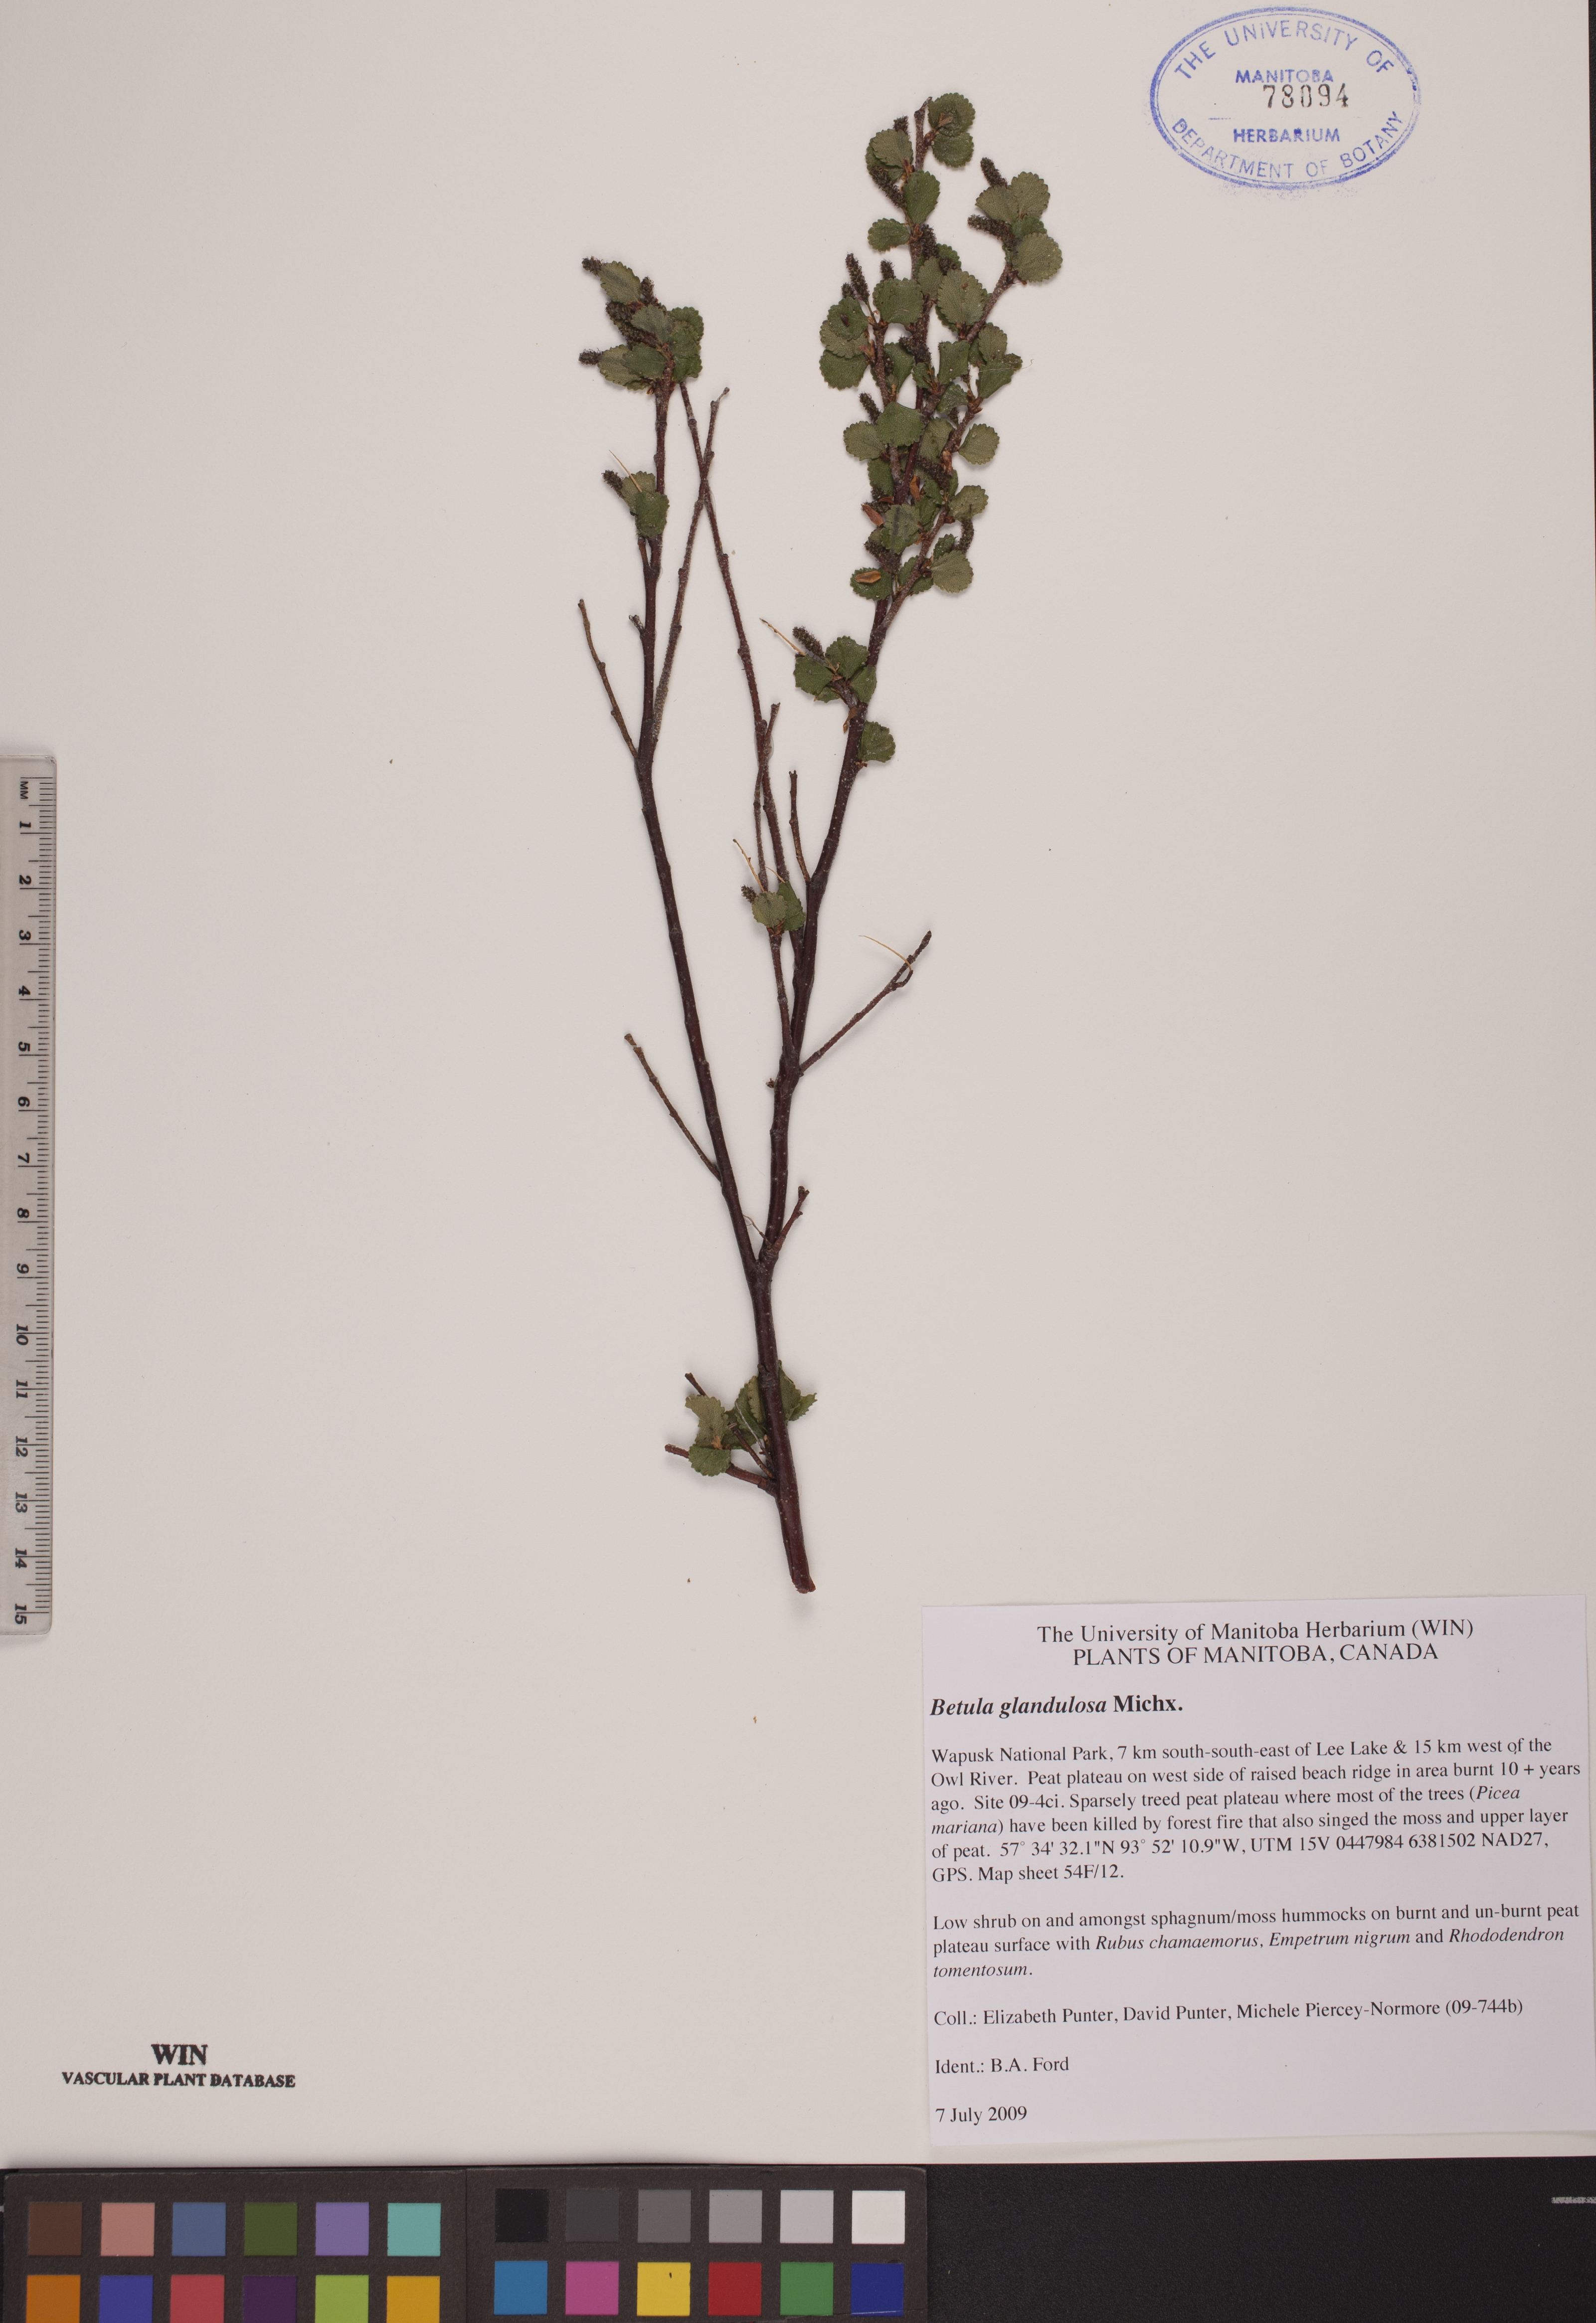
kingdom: Plantae
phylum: Tracheophyta
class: Magnoliopsida
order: Fagales
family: Betulaceae
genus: Betula
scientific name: Betula glandulosa
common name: Dwarf birch
